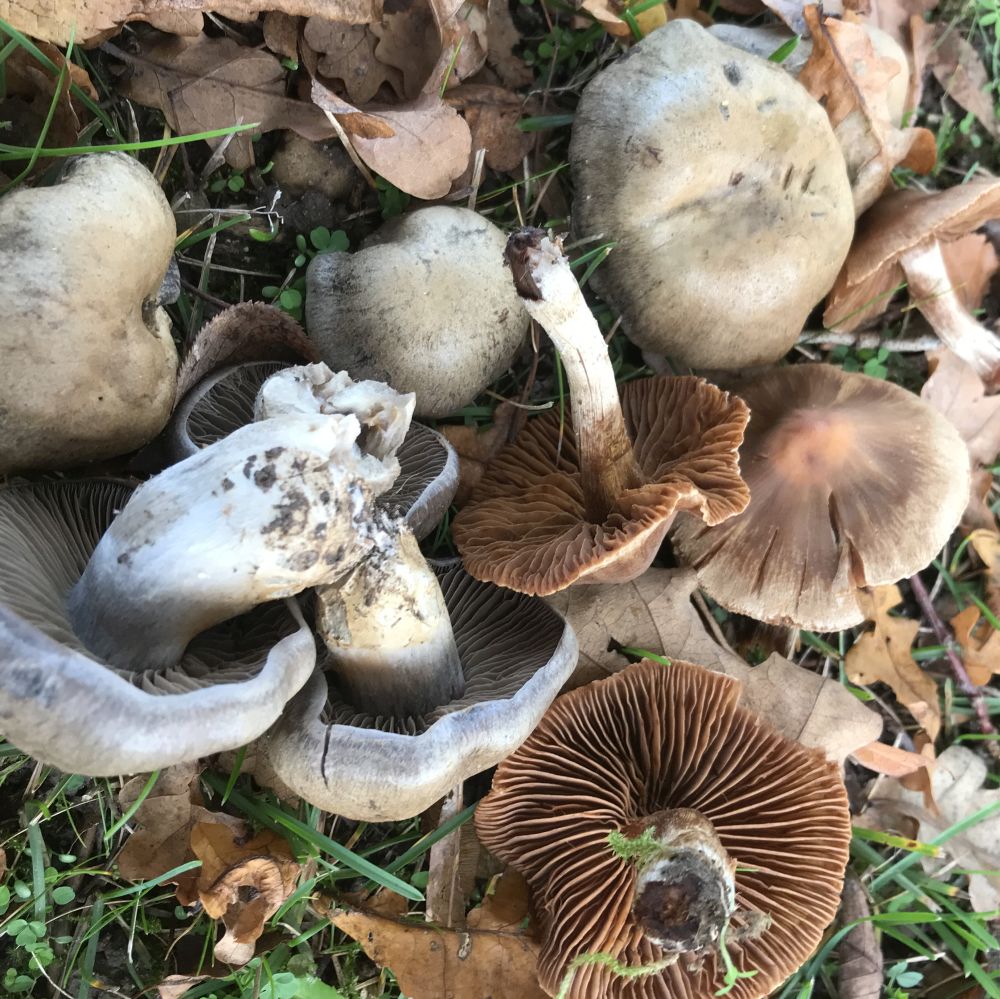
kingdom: Fungi
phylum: Basidiomycota
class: Agaricomycetes
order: Agaricales
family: Cortinariaceae
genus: Cortinarius
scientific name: Cortinarius
